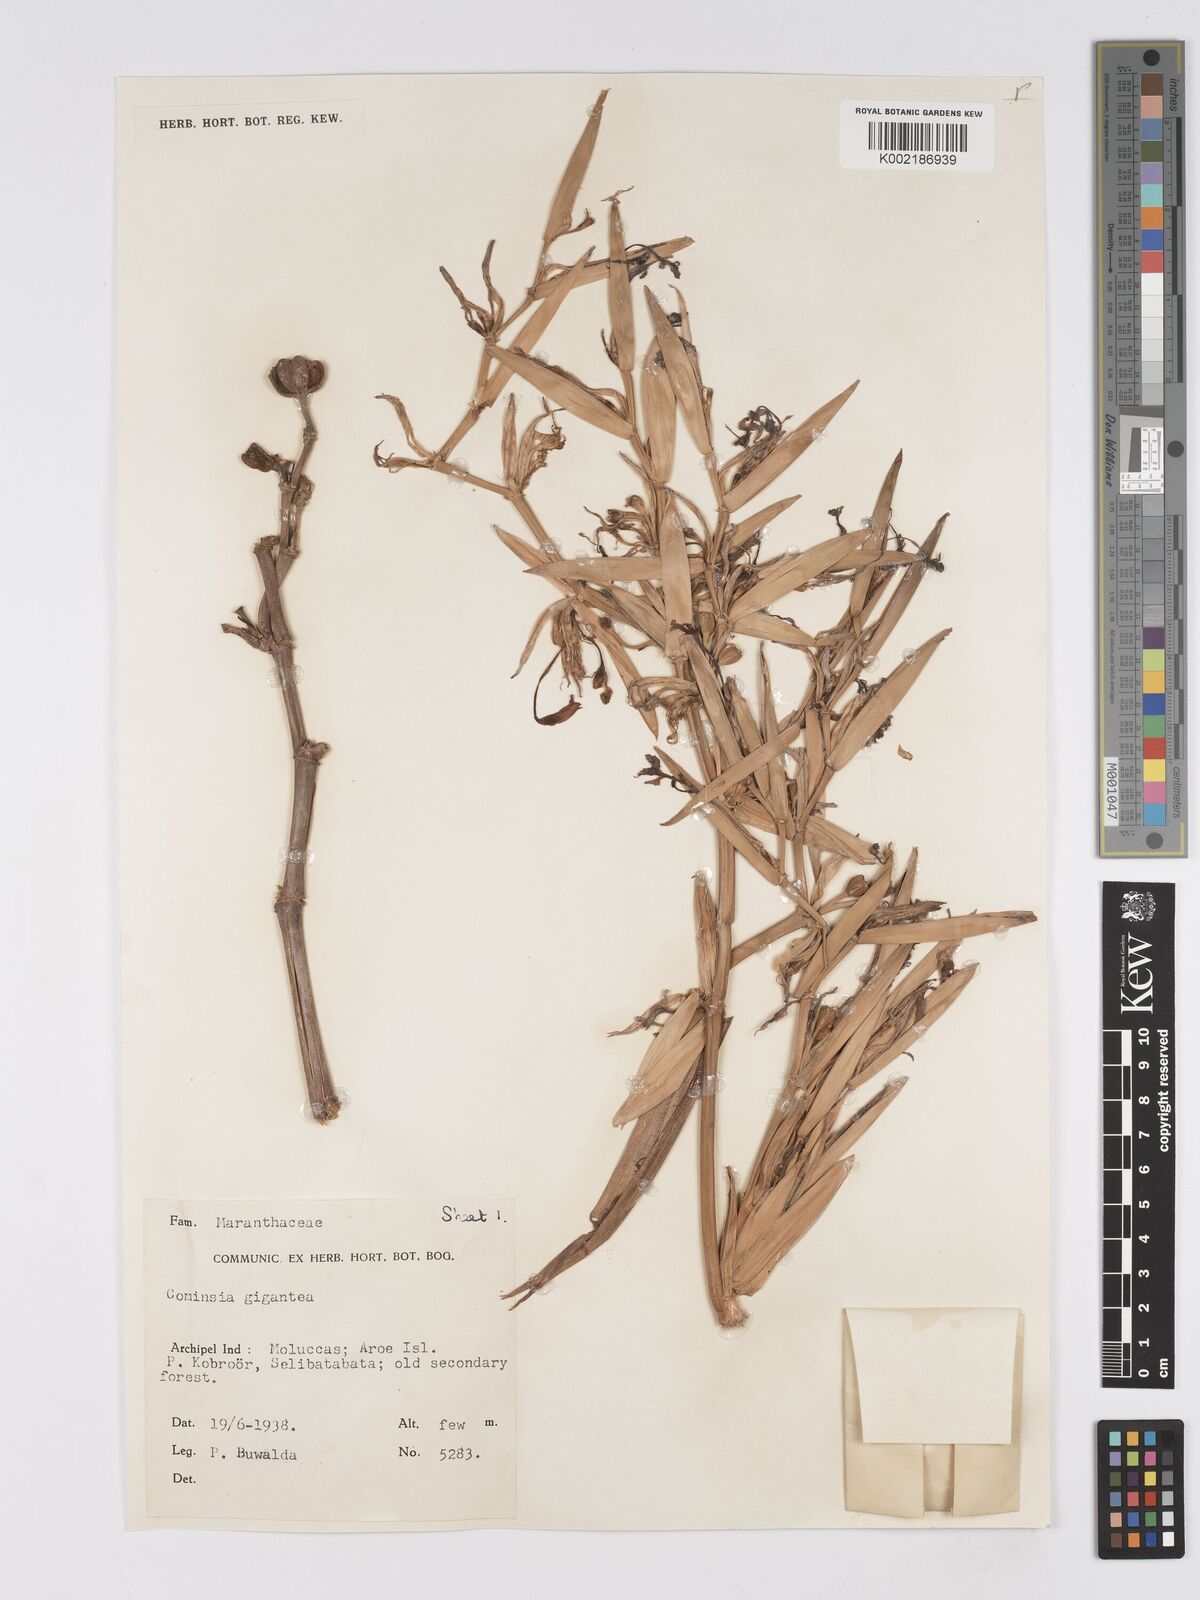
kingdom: Plantae
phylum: Tracheophyta
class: Liliopsida
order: Zingiberales
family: Marantaceae
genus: Phrynium
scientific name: Phrynium giganteum
